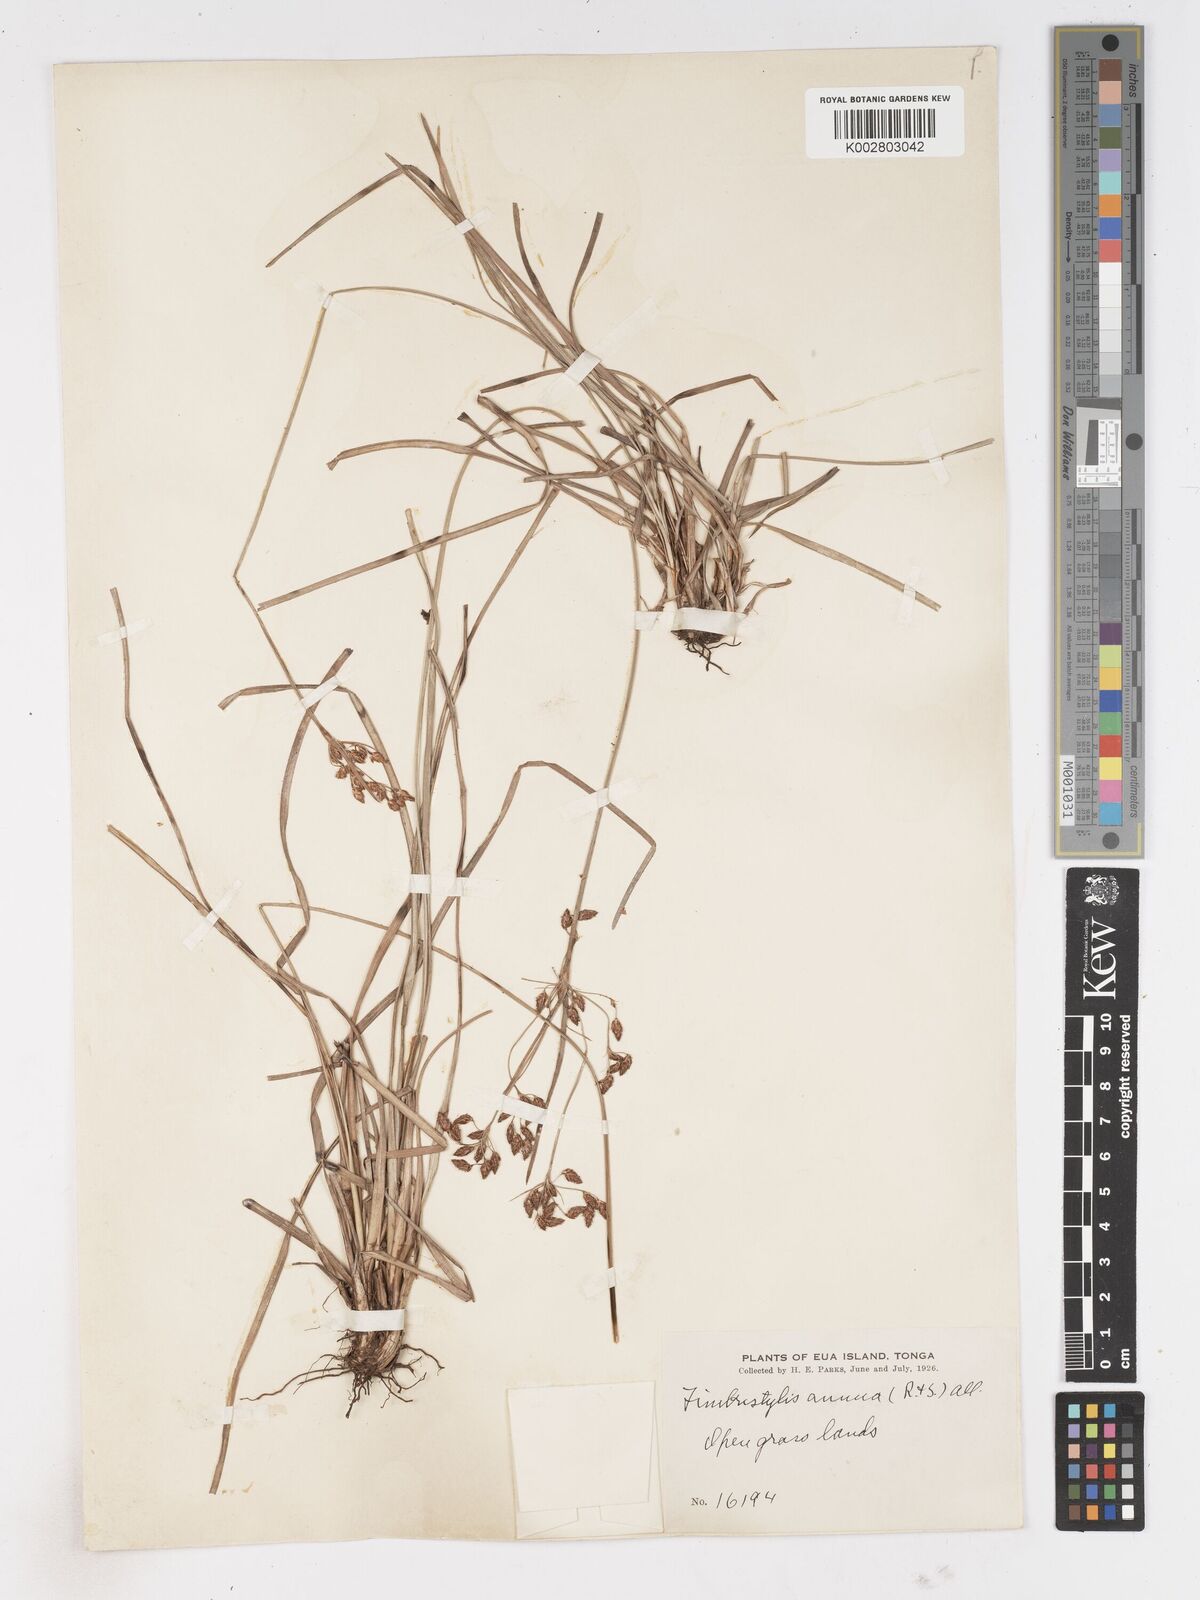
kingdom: Plantae
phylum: Tracheophyta
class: Liliopsida
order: Poales
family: Cyperaceae
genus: Fimbristylis
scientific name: Fimbristylis dichotoma
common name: Forked fimbry
